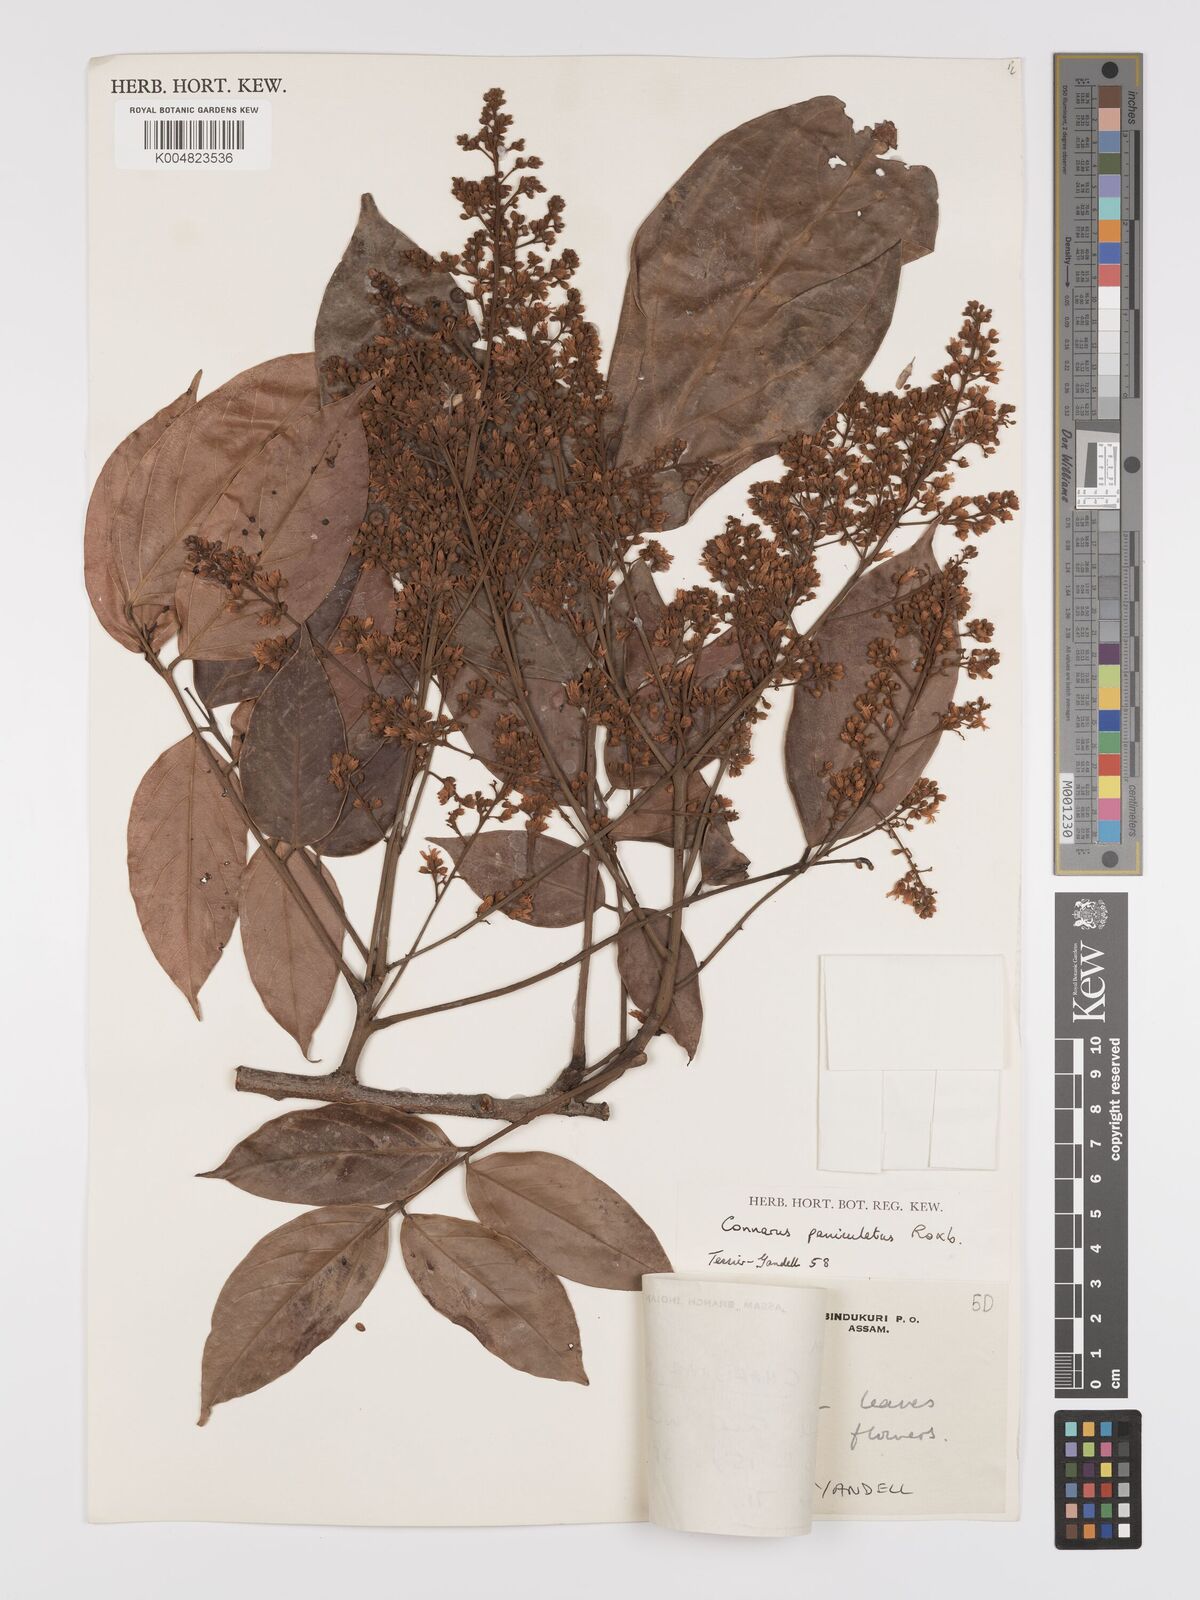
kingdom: Plantae
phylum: Tracheophyta
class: Magnoliopsida
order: Oxalidales
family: Connaraceae
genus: Connarus
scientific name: Connarus paniculatus
